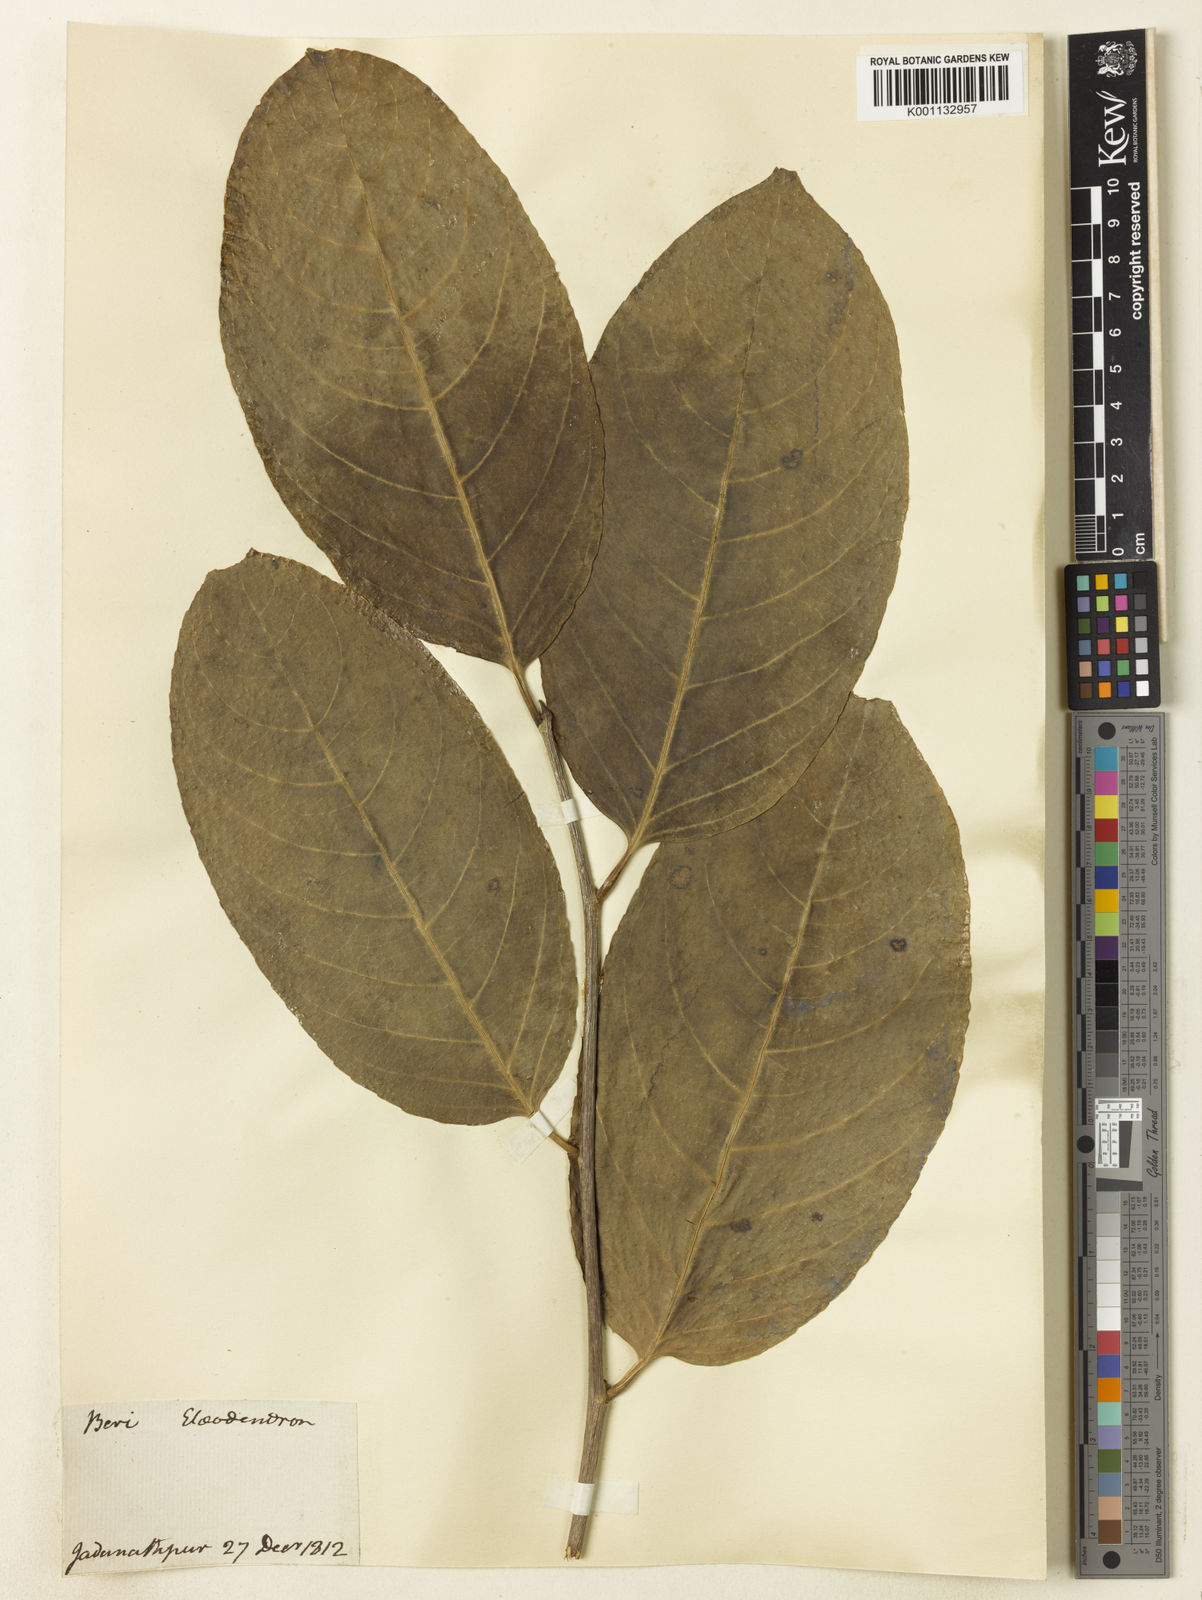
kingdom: Plantae
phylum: Tracheophyta
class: Magnoliopsida
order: Celastrales
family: Celastraceae
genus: Elaeodendron
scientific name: Elaeodendron
